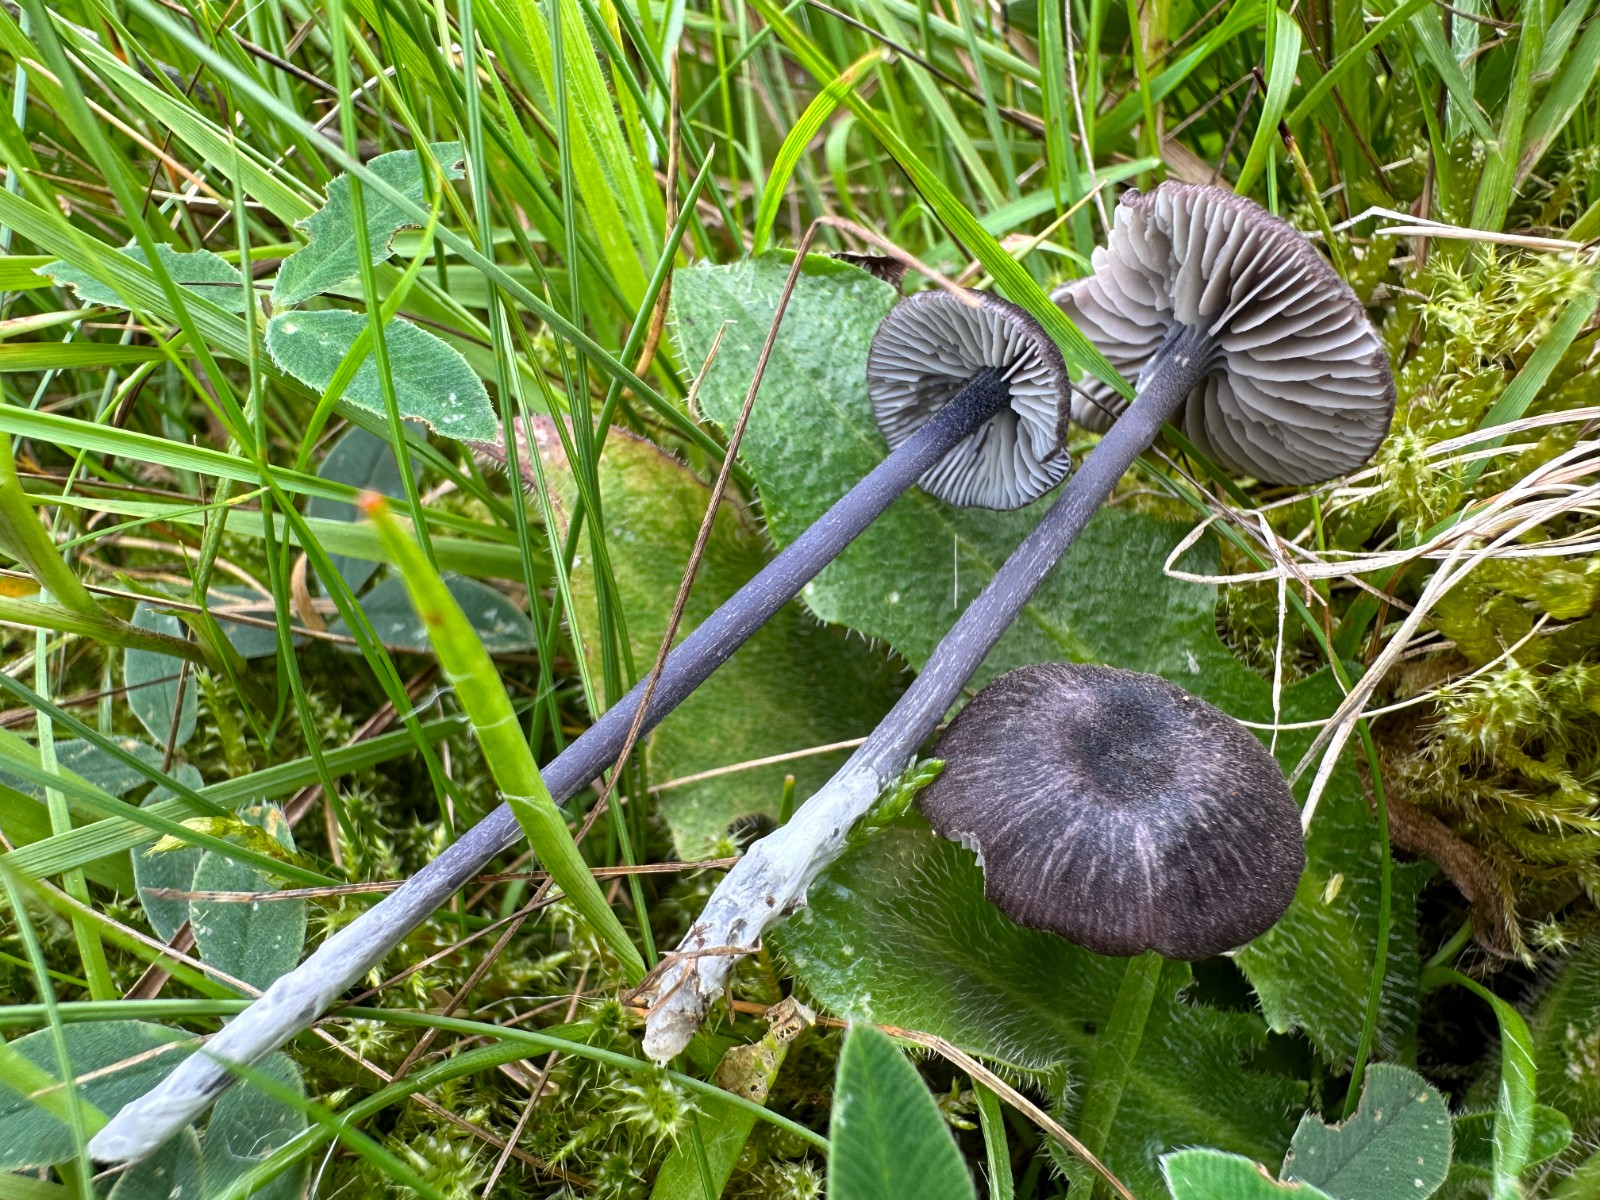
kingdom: Fungi
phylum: Basidiomycota
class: Agaricomycetes
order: Agaricales
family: Entolomataceae
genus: Entoloma
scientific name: Entoloma chalybeum
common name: blåbladet rødblad
